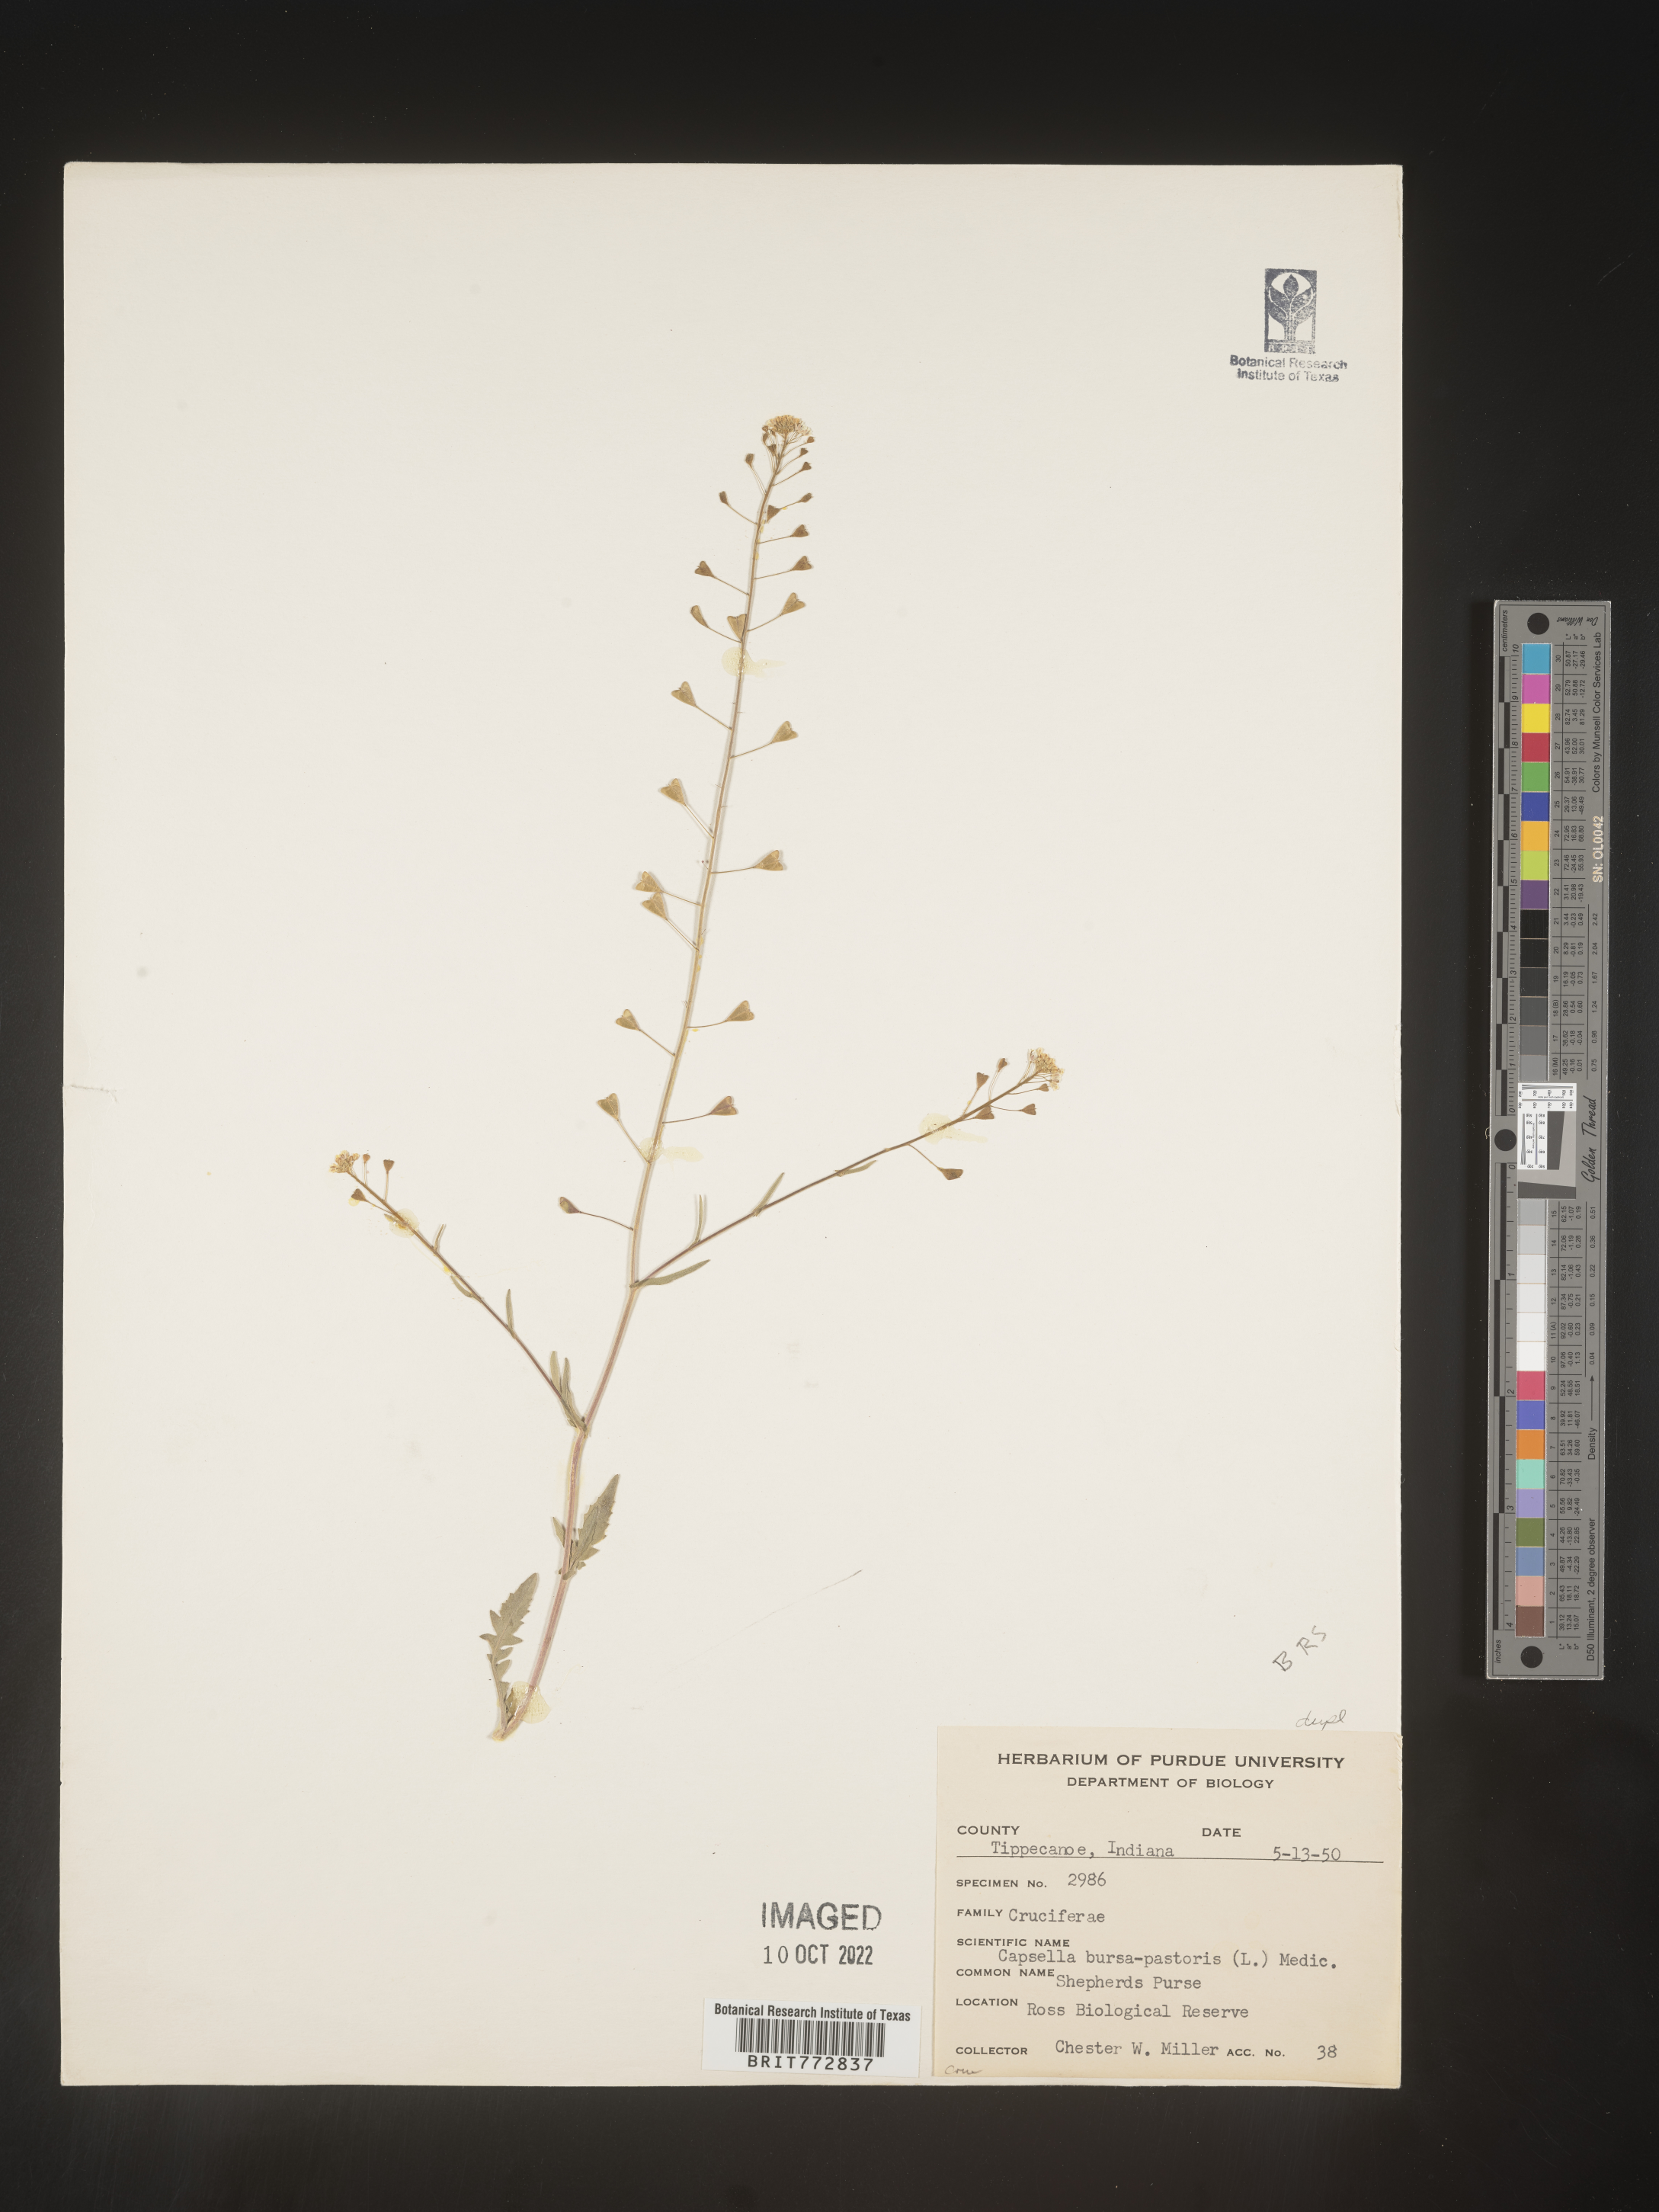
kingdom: Plantae
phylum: Tracheophyta
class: Magnoliopsida
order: Brassicales
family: Brassicaceae
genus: Capsella
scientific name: Capsella bursa-pastoris
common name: Shepherd's purse
